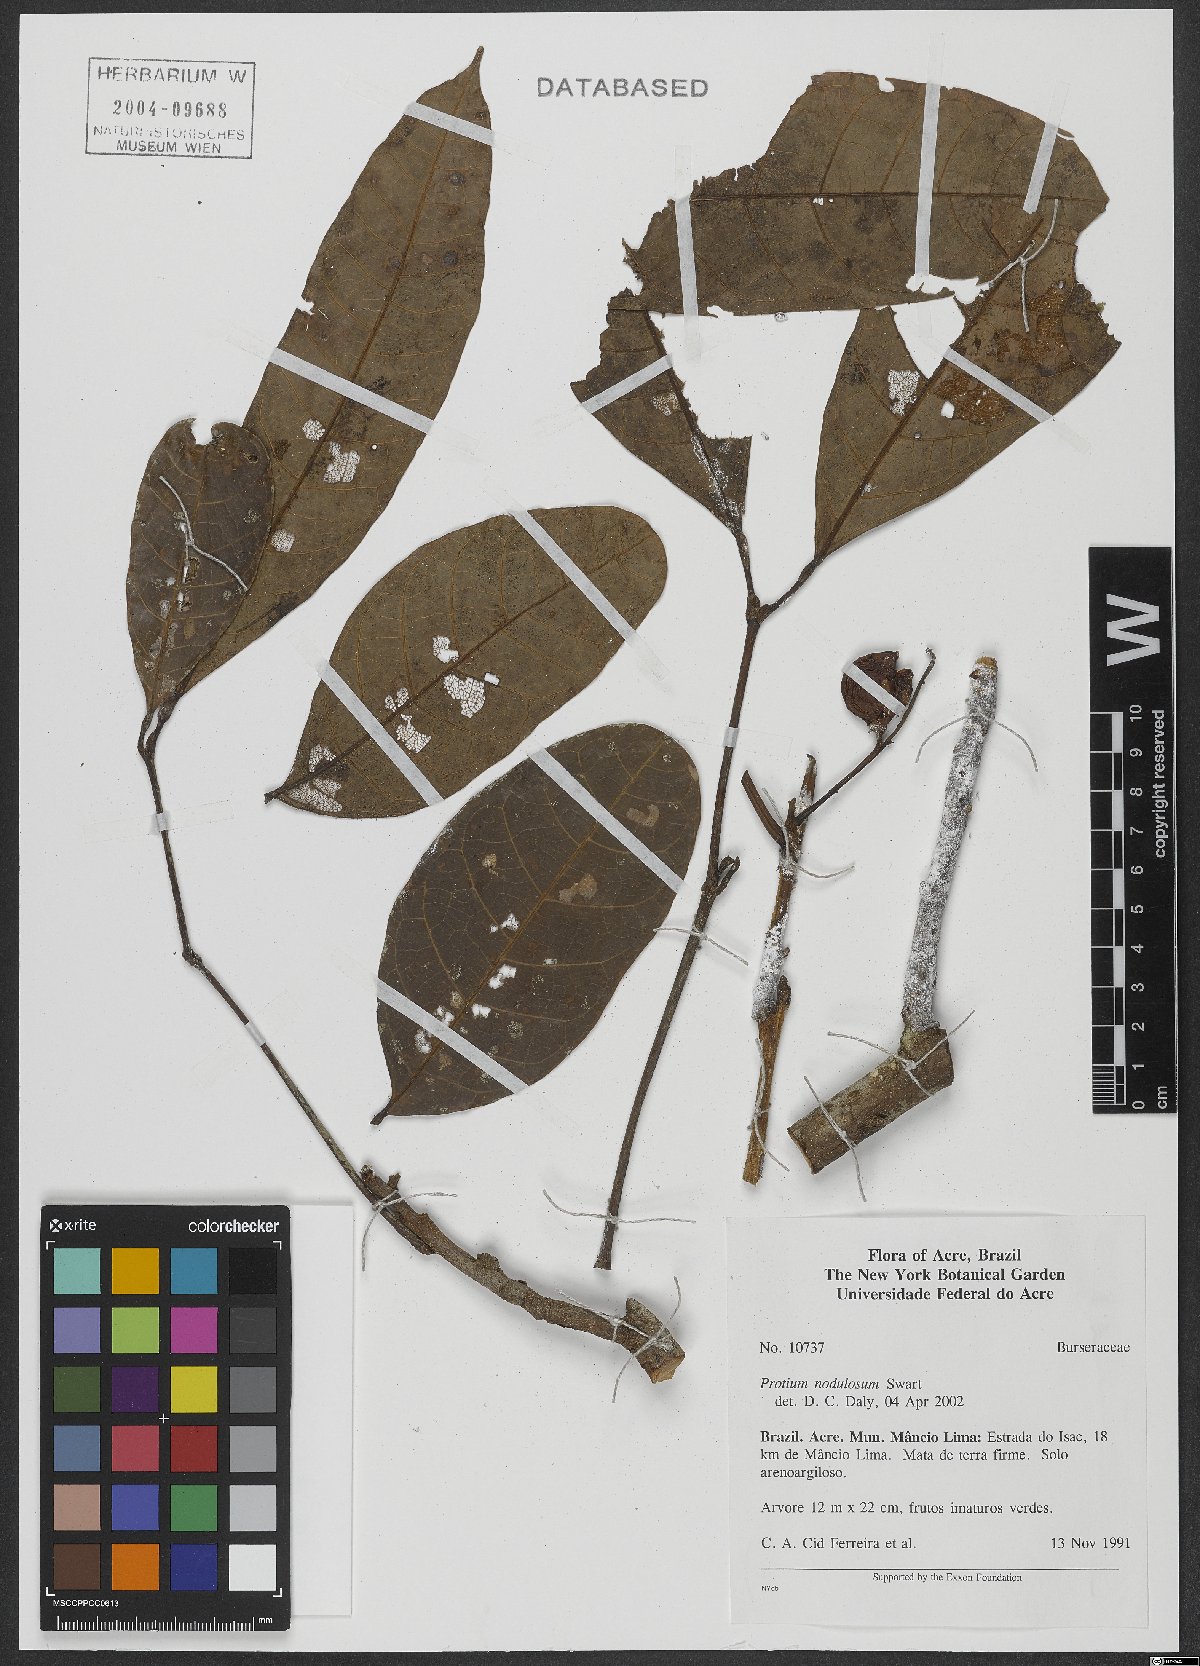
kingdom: Plantae
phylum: Tracheophyta
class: Magnoliopsida
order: Sapindales
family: Burseraceae
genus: Protium
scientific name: Protium nodulosum
